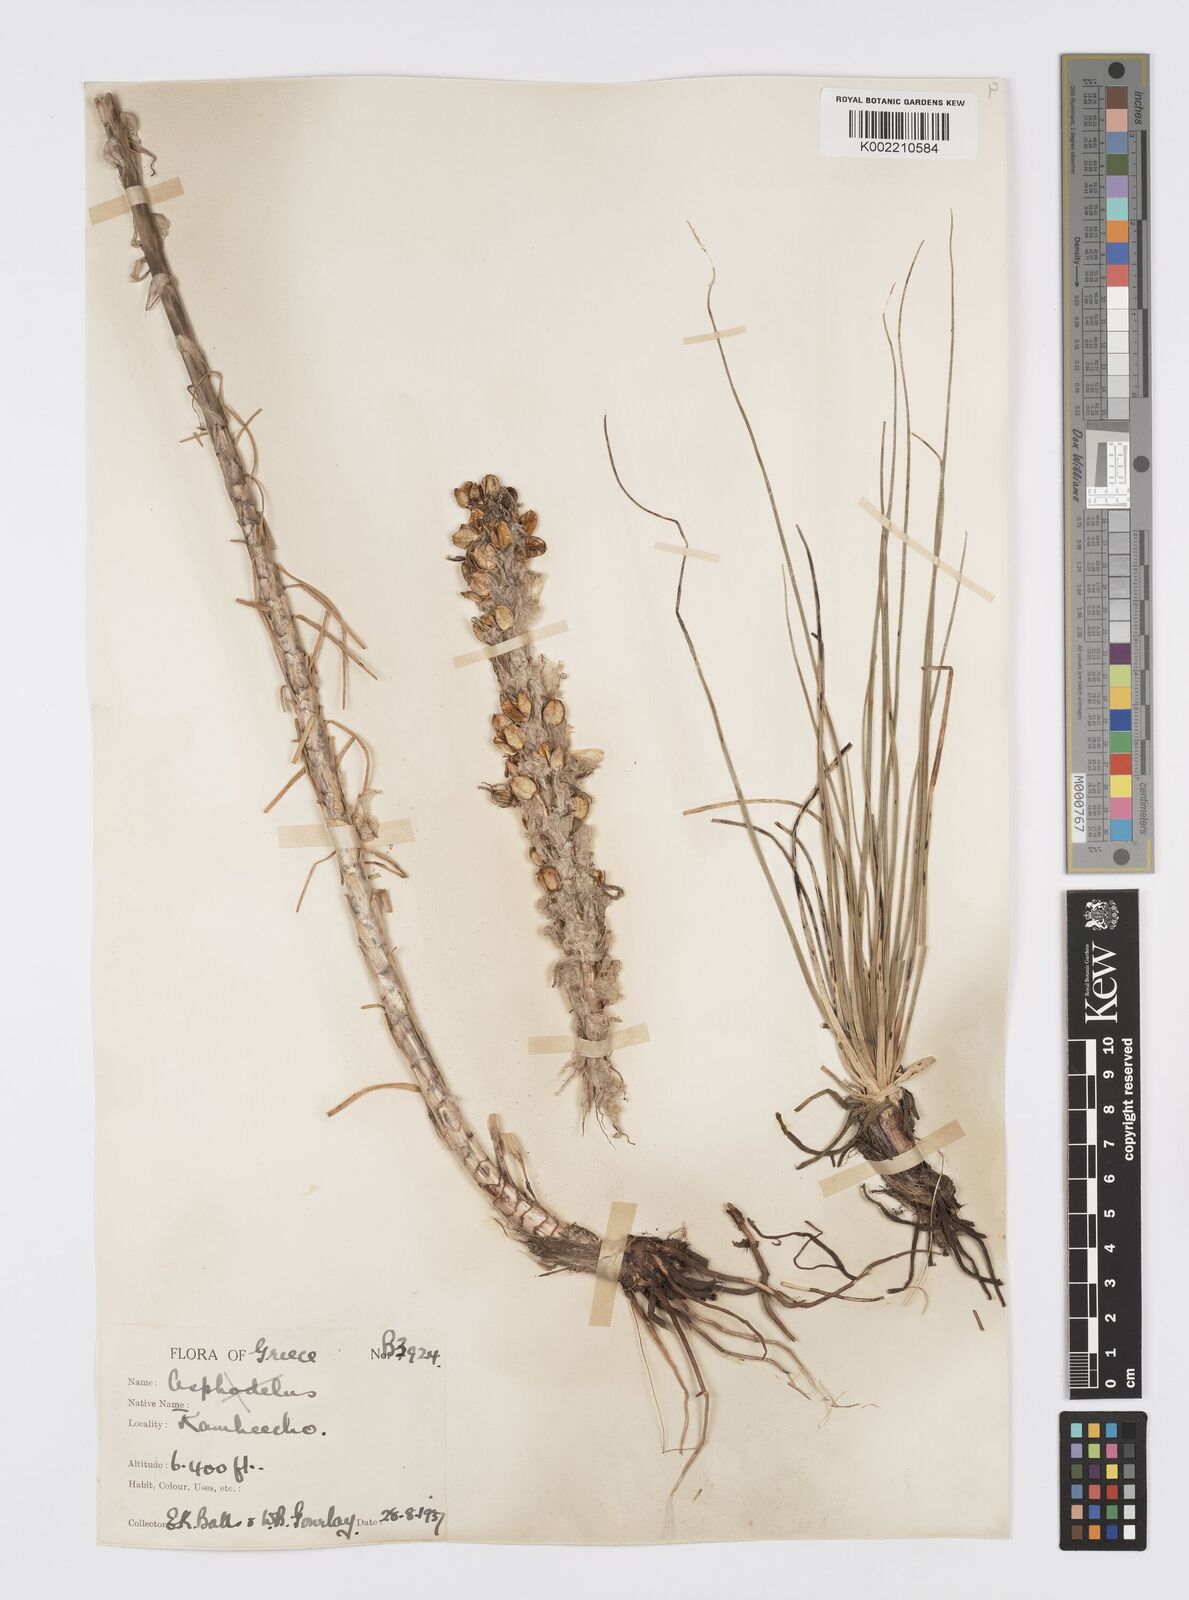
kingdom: Plantae
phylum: Tracheophyta
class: Liliopsida
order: Asparagales
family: Asphodelaceae
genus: Asphodeline
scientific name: Asphodeline taurica
